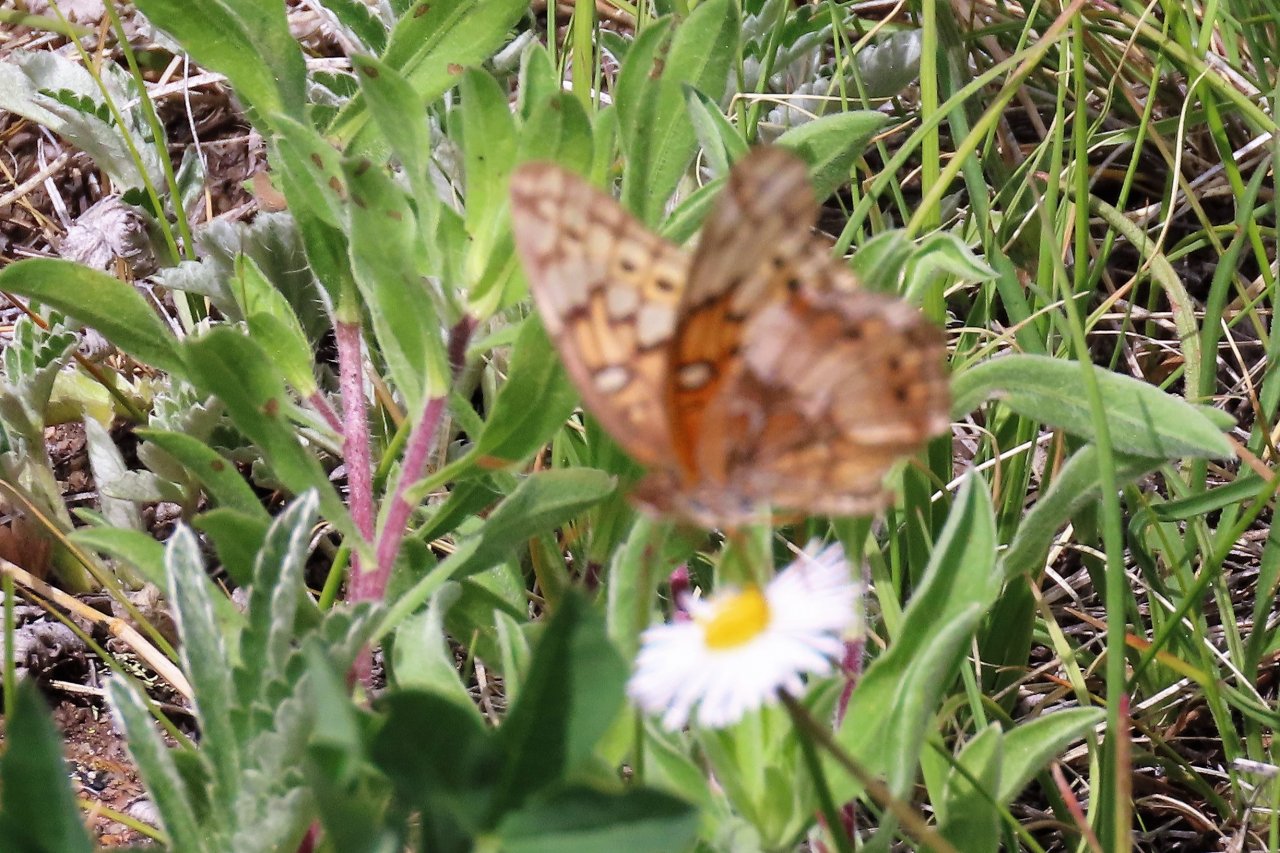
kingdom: Animalia
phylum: Arthropoda
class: Insecta
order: Lepidoptera
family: Nymphalidae
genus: Euptoieta
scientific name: Euptoieta claudia
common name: Variegated Fritillary
